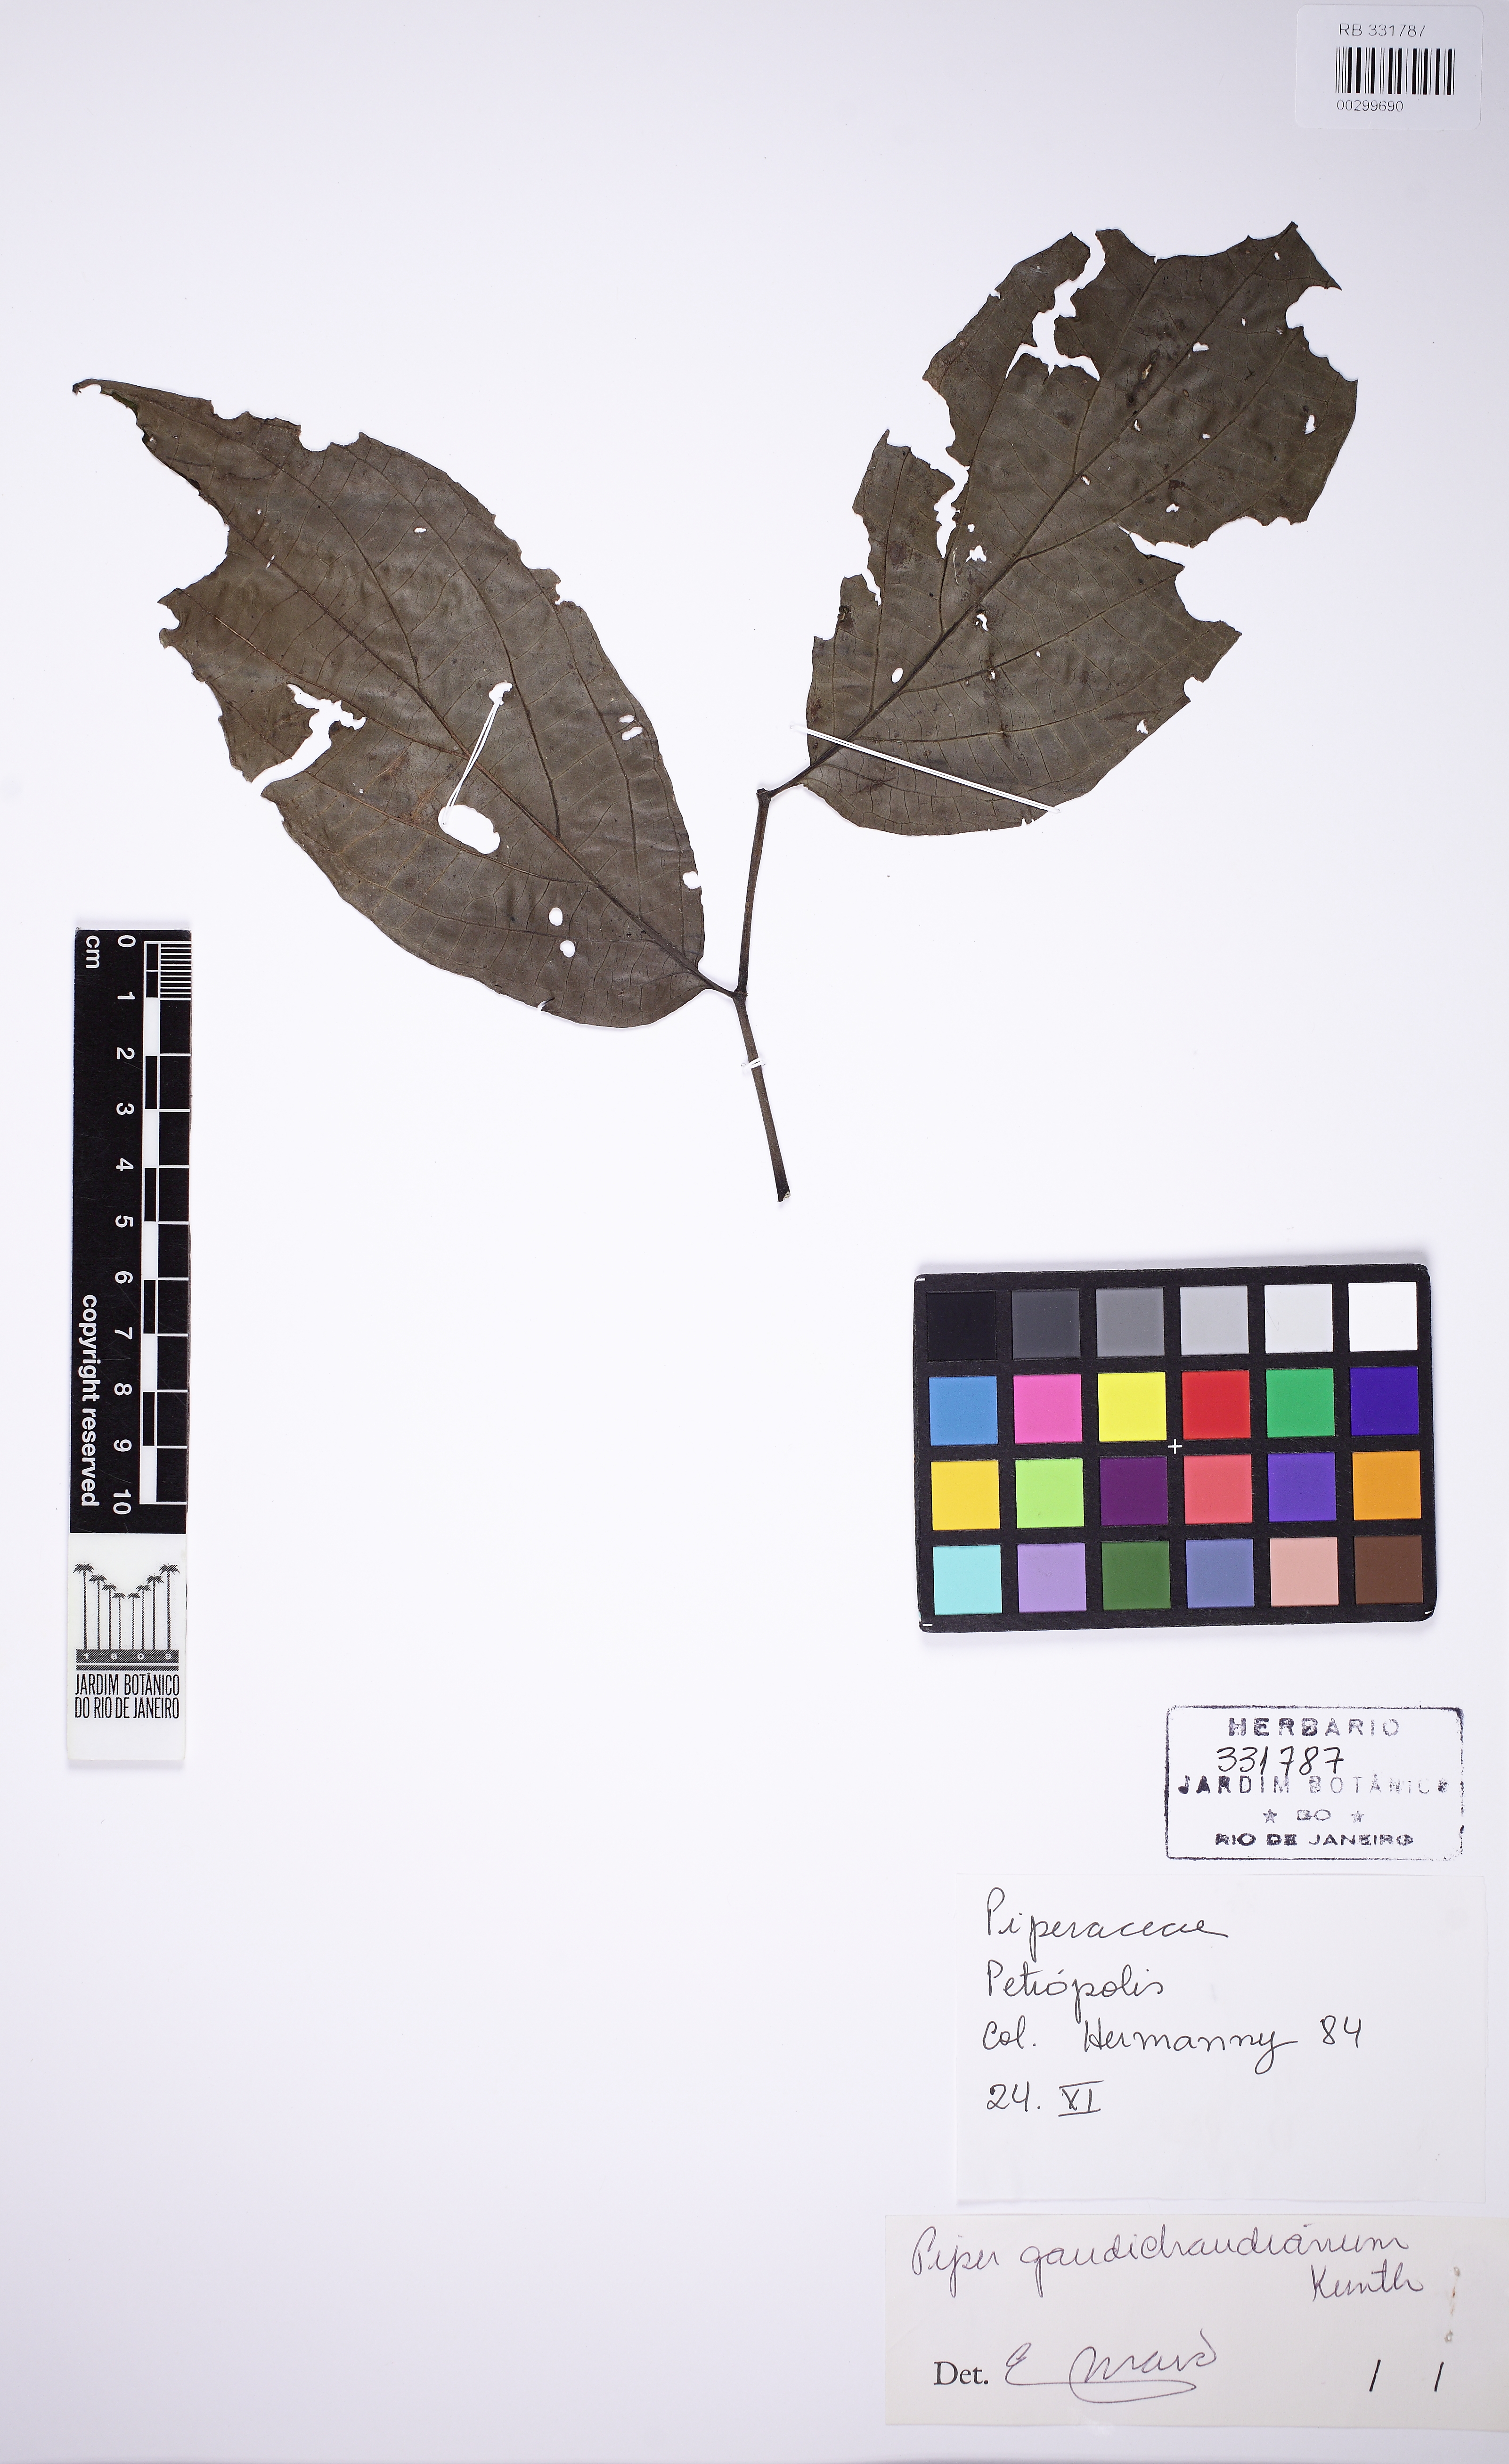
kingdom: Plantae
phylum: Tracheophyta
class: Magnoliopsida
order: Piperales
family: Piperaceae
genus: Piper
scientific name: Piper gaudichaudianum
